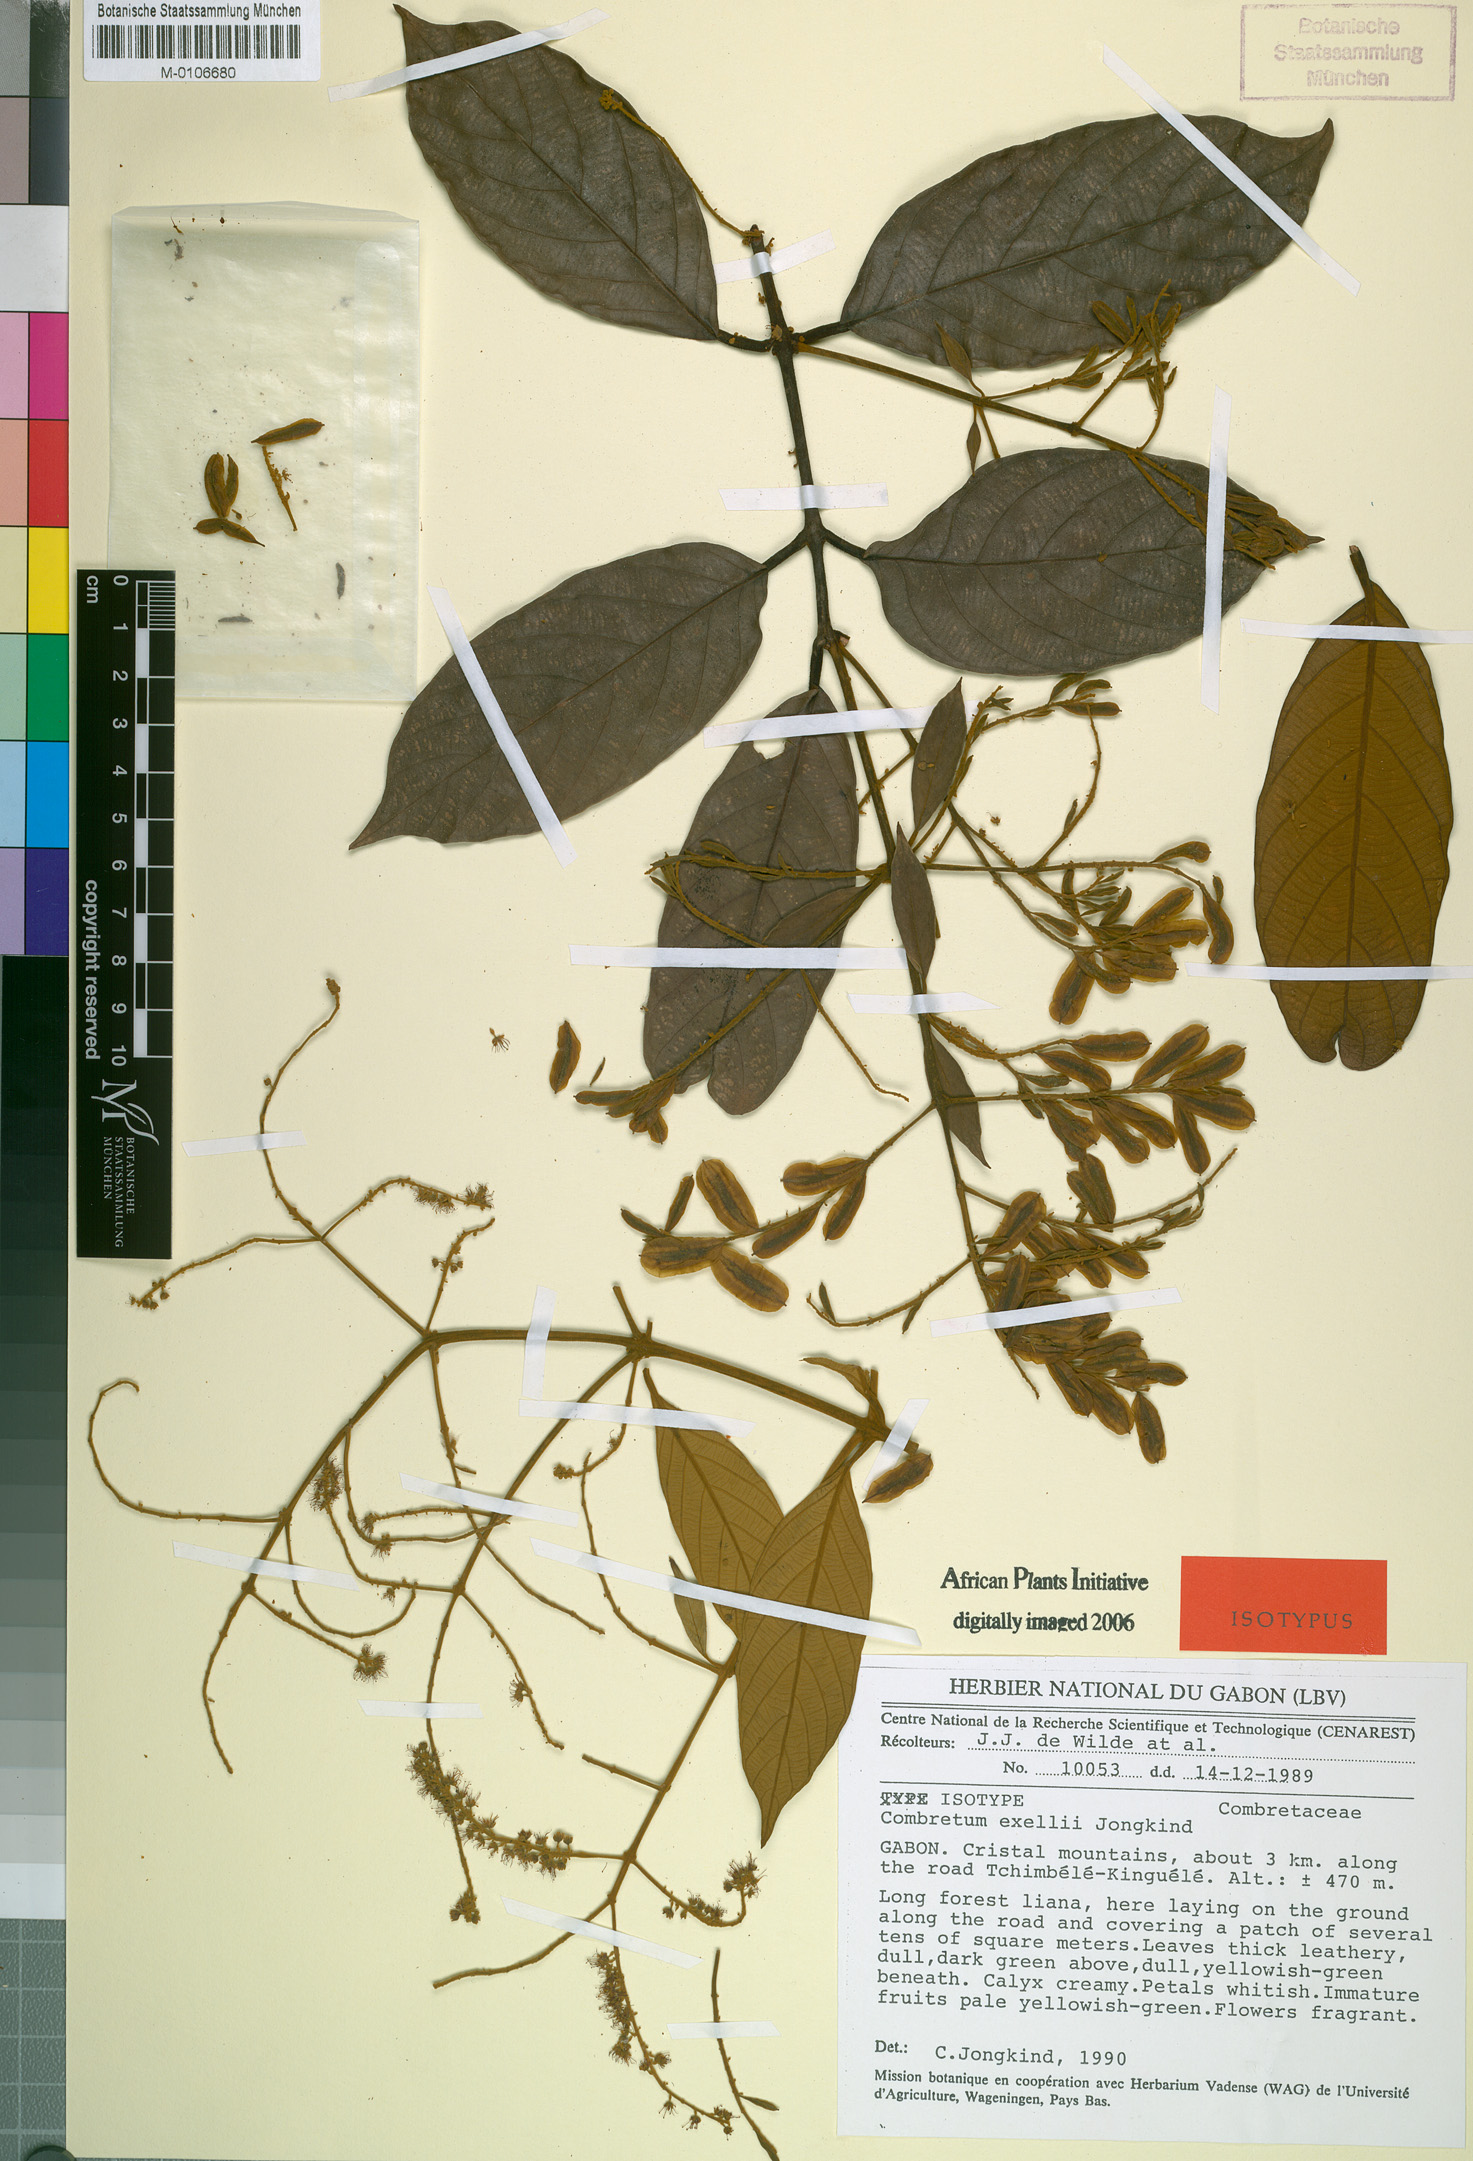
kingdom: Plantae
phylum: Tracheophyta
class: Magnoliopsida
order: Myrtales
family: Combretaceae
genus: Combretum
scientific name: Combretum exellii
